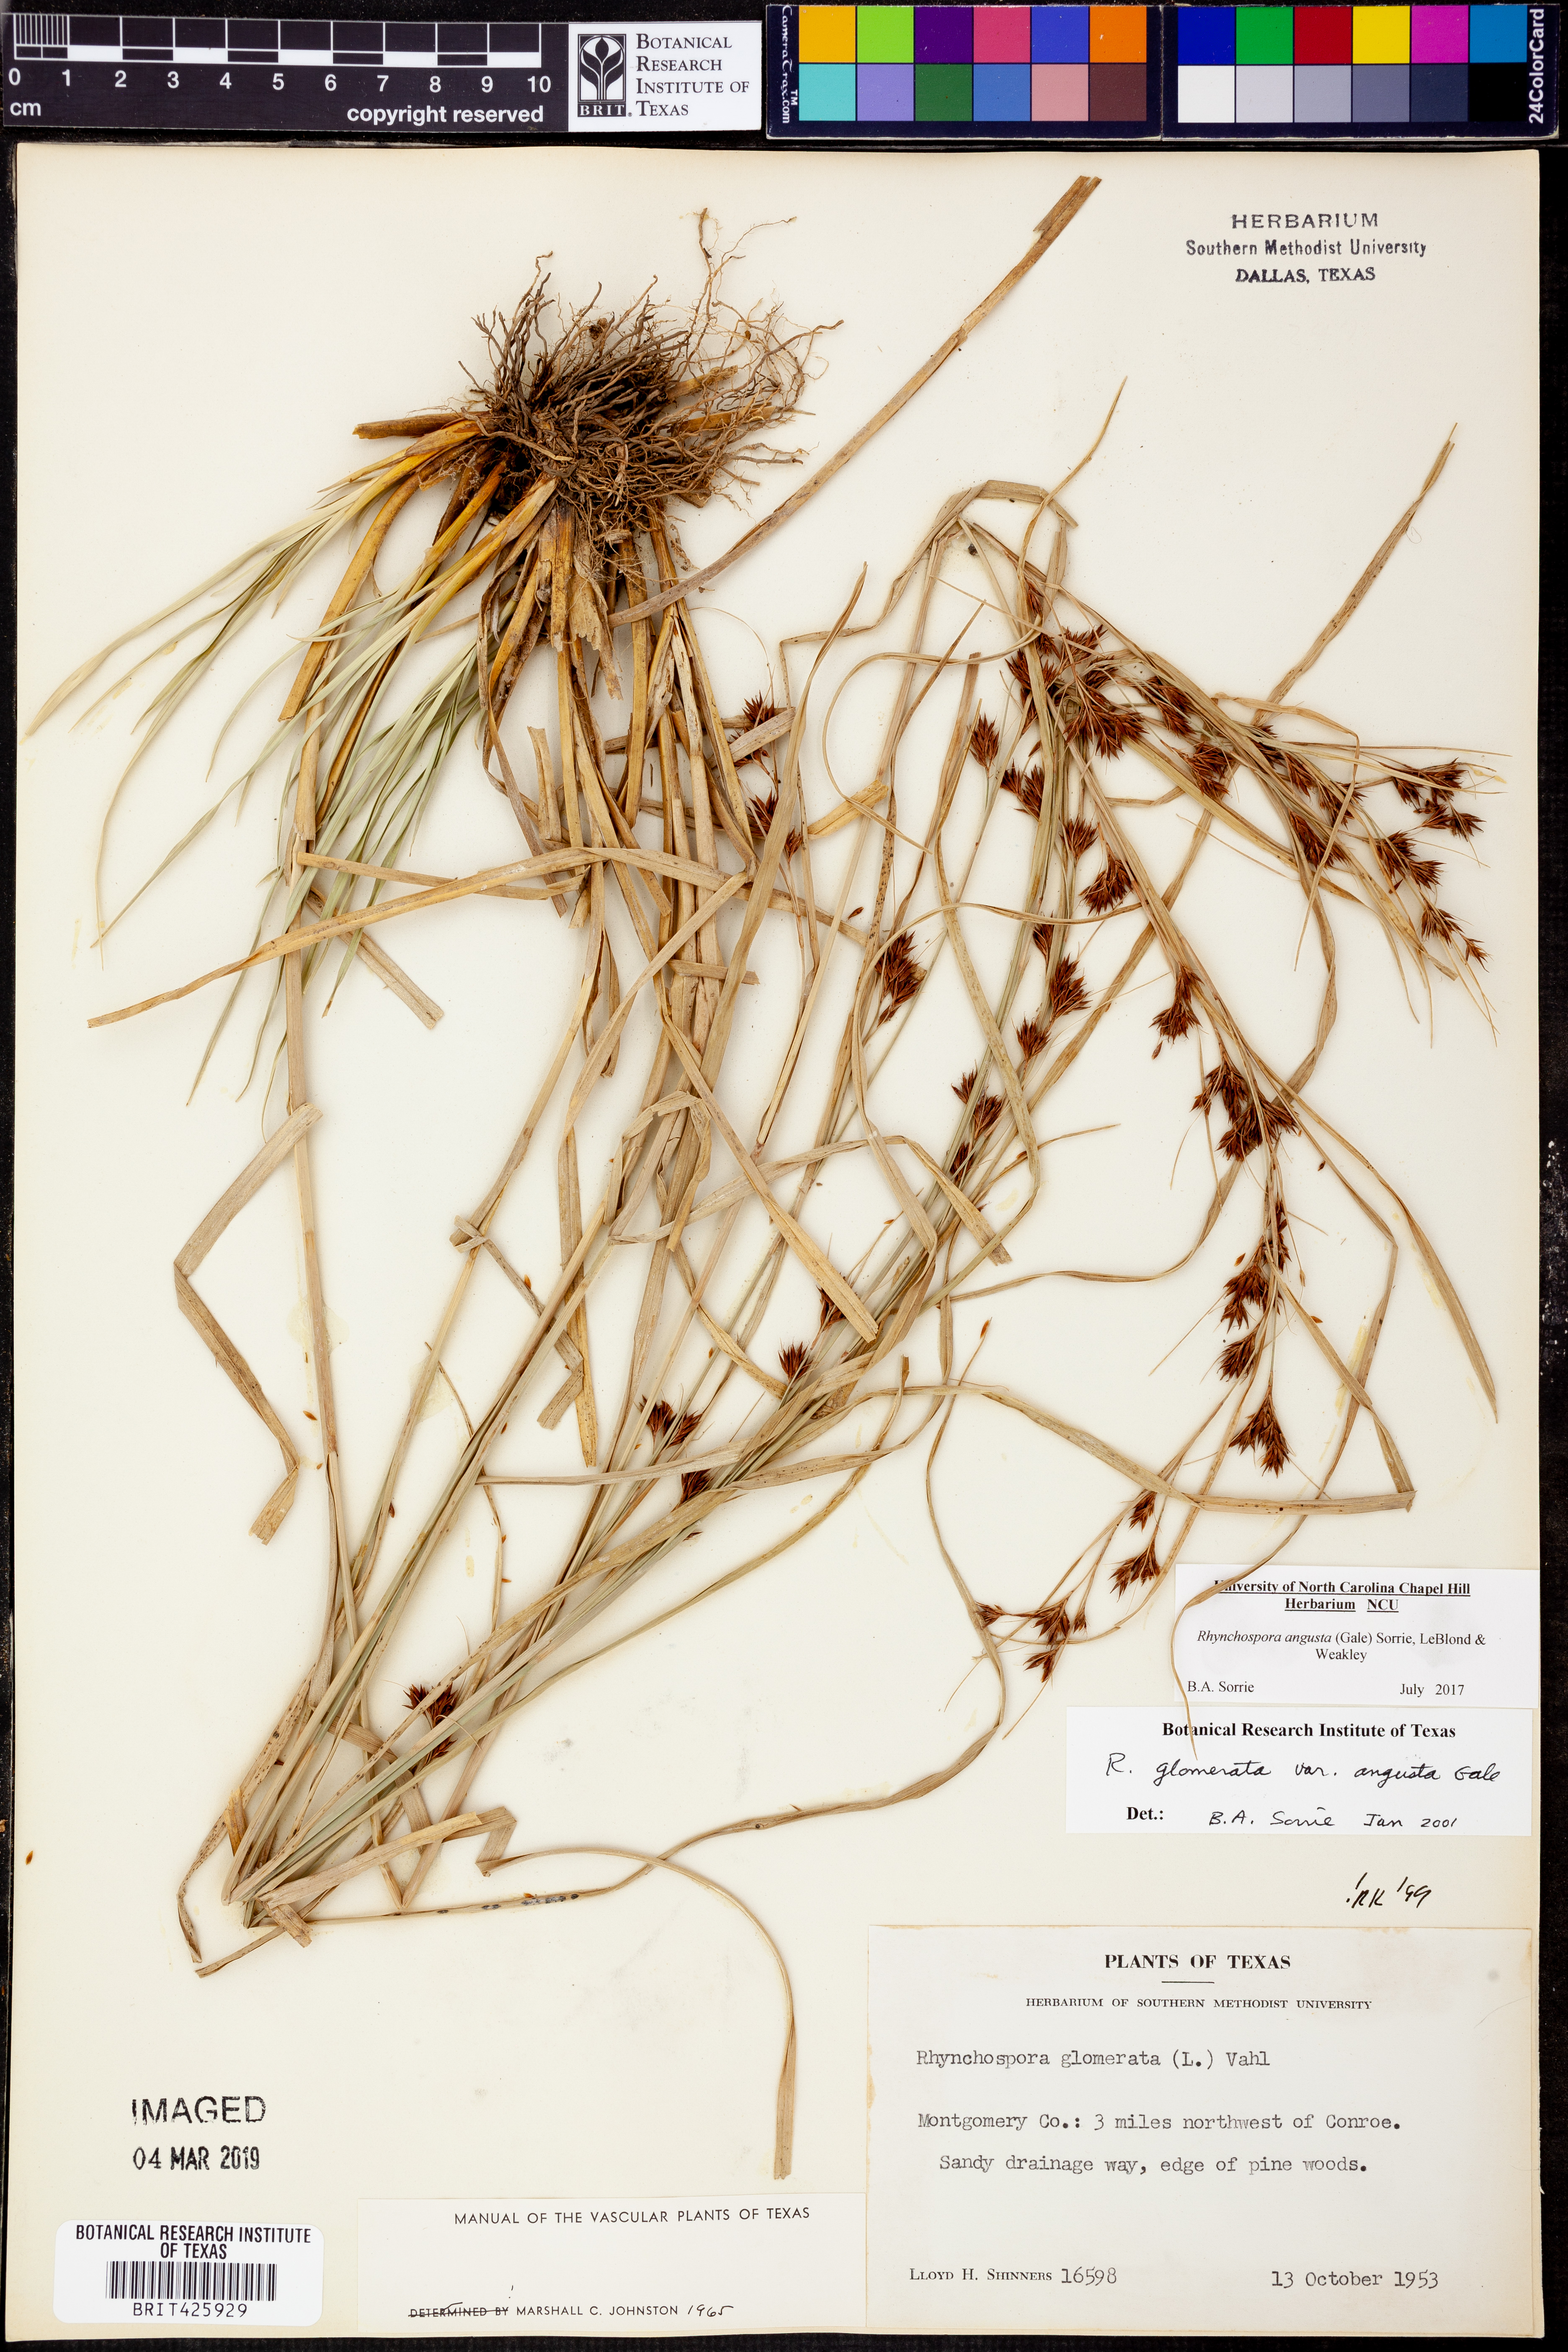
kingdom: Plantae
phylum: Tracheophyta
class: Liliopsida
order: Poales
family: Cyperaceae
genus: Rhynchospora
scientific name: Rhynchospora angusta
